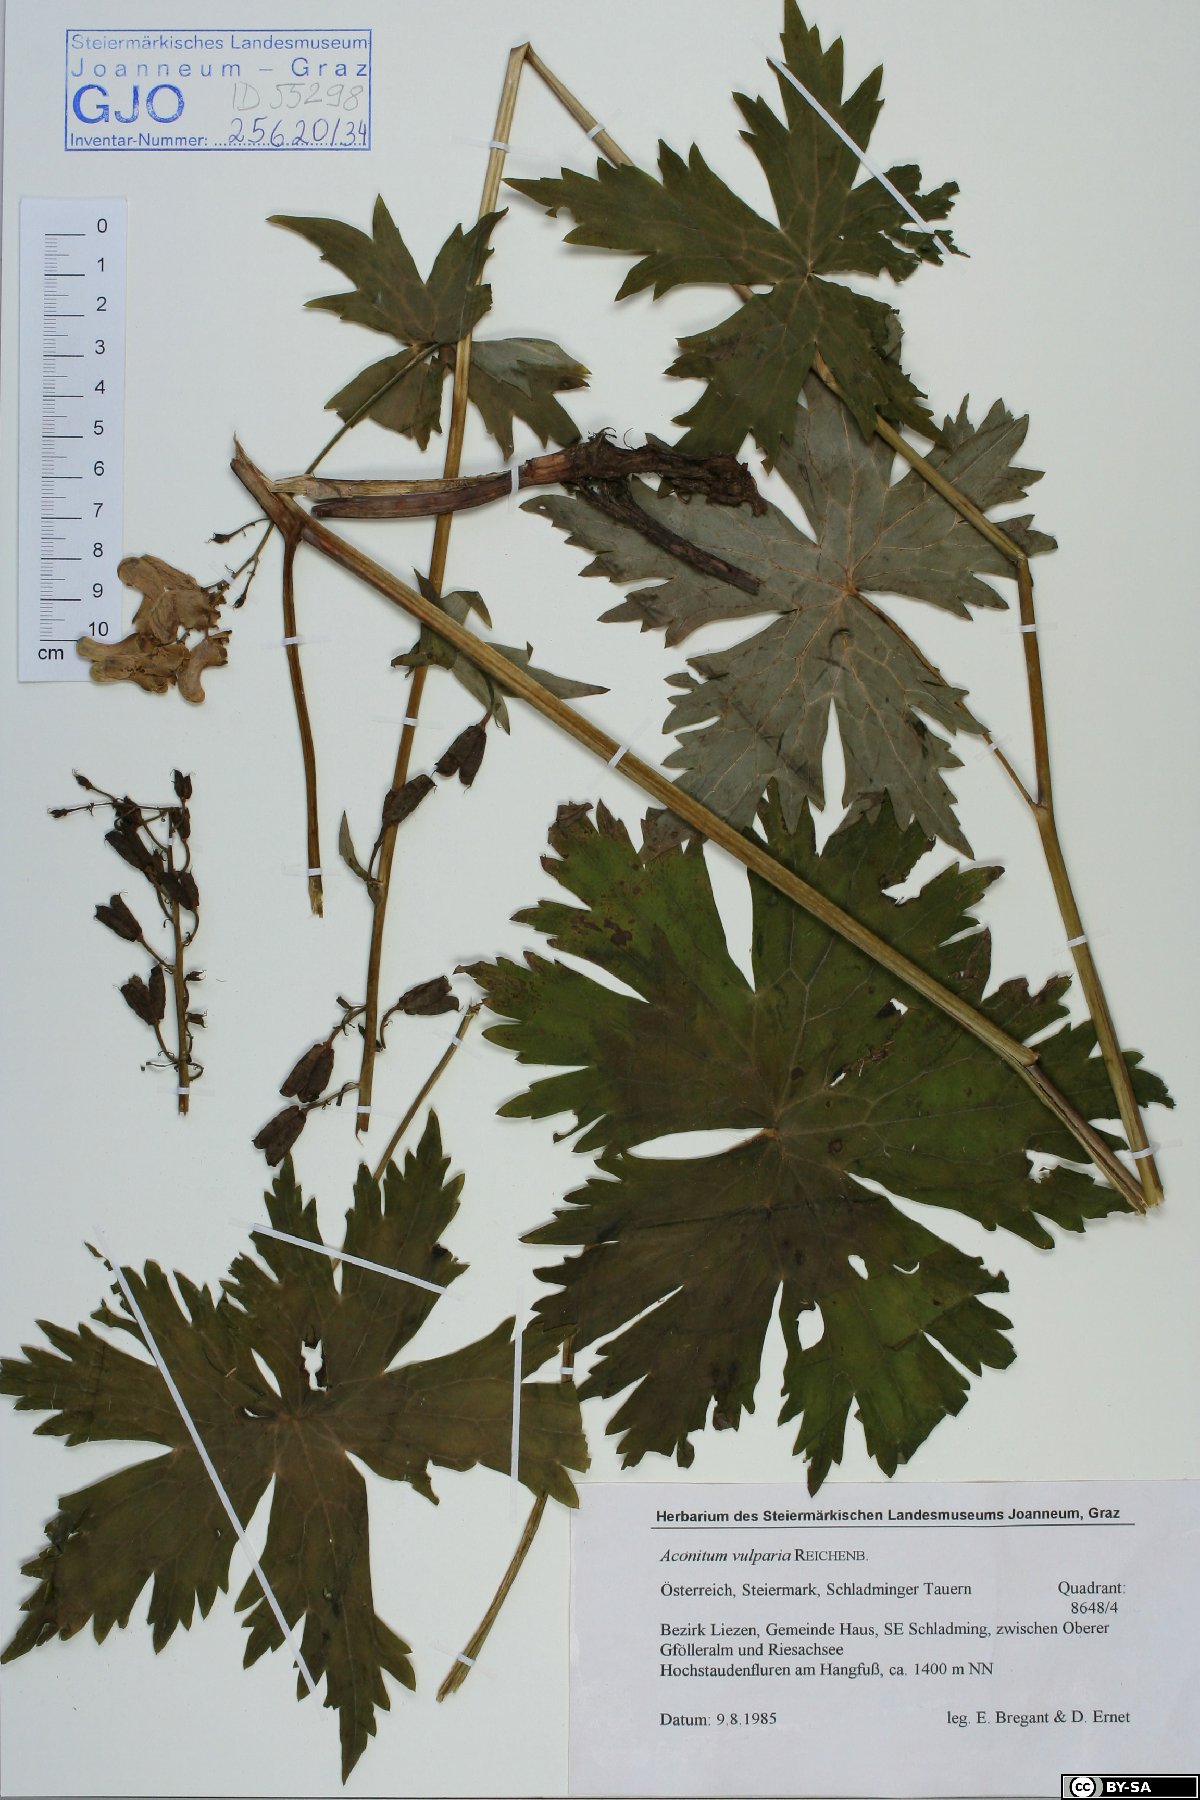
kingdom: Plantae
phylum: Tracheophyta
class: Magnoliopsida
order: Ranunculales
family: Ranunculaceae
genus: Aconitum
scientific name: Aconitum lycoctonum
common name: Wolf's-bane
